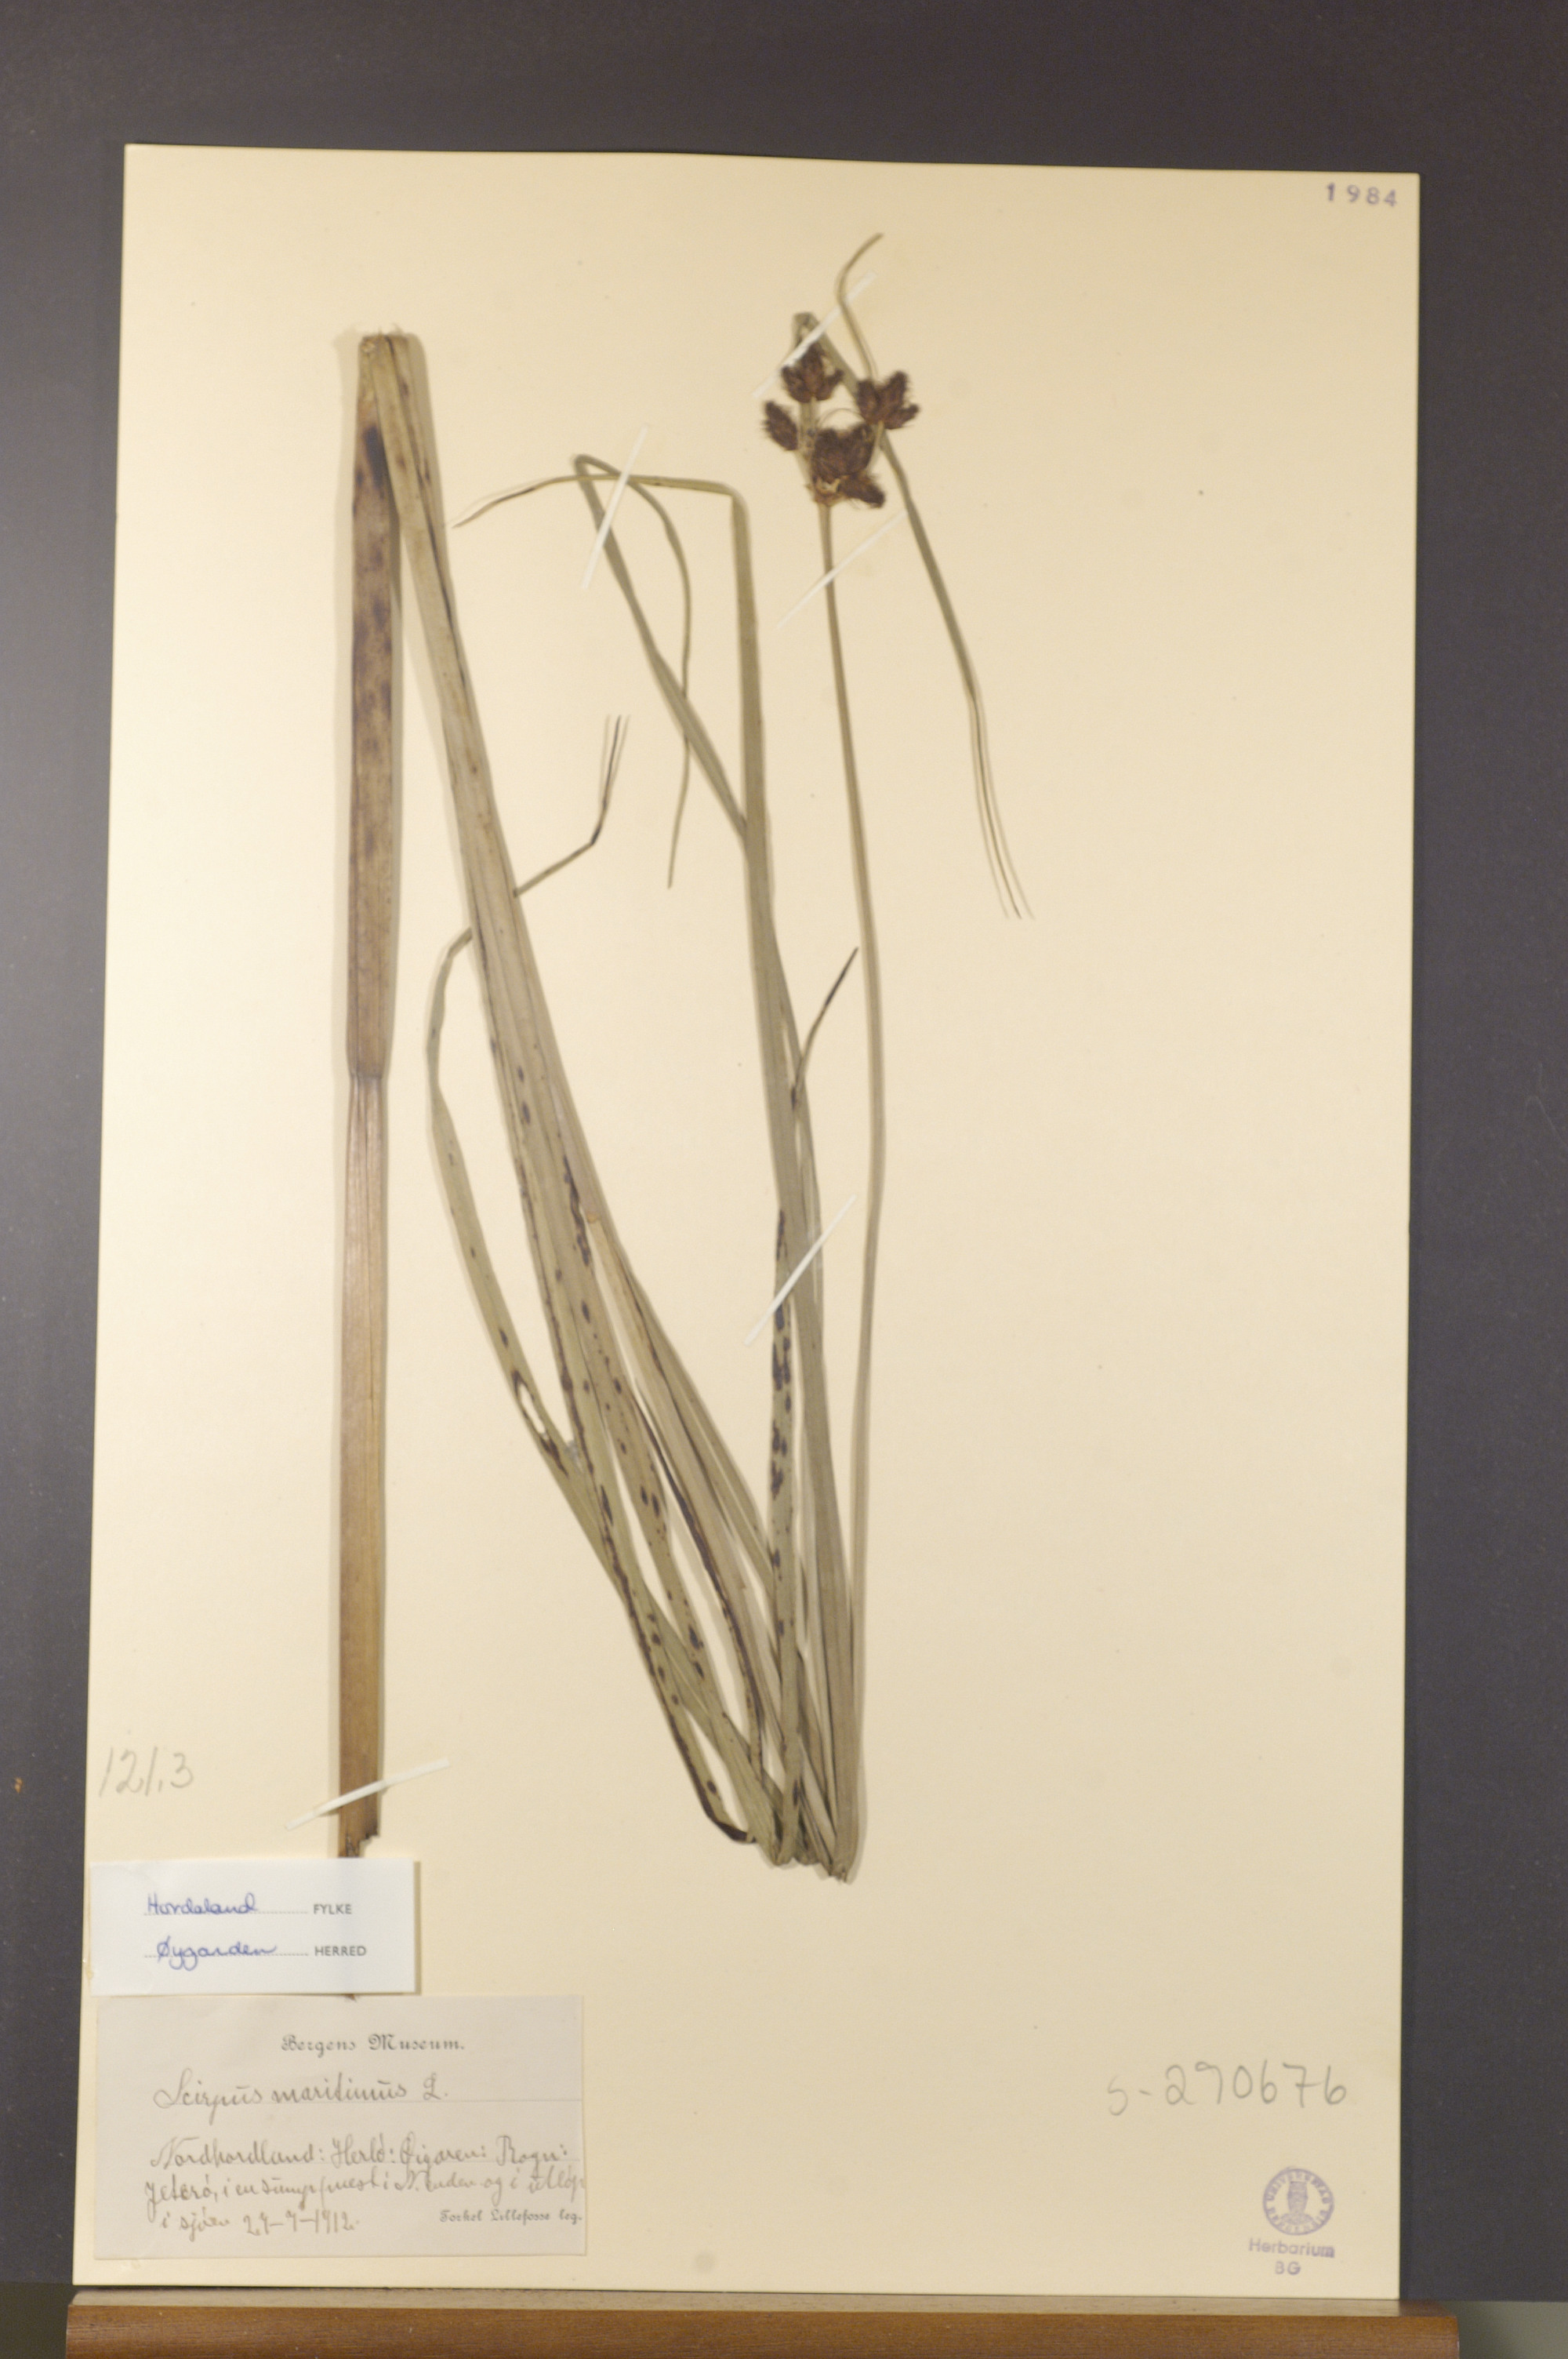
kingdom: Plantae
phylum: Tracheophyta
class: Liliopsida
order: Poales
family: Cyperaceae
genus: Bolboschoenus
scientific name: Bolboschoenus maritimus
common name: Sea club-rush
